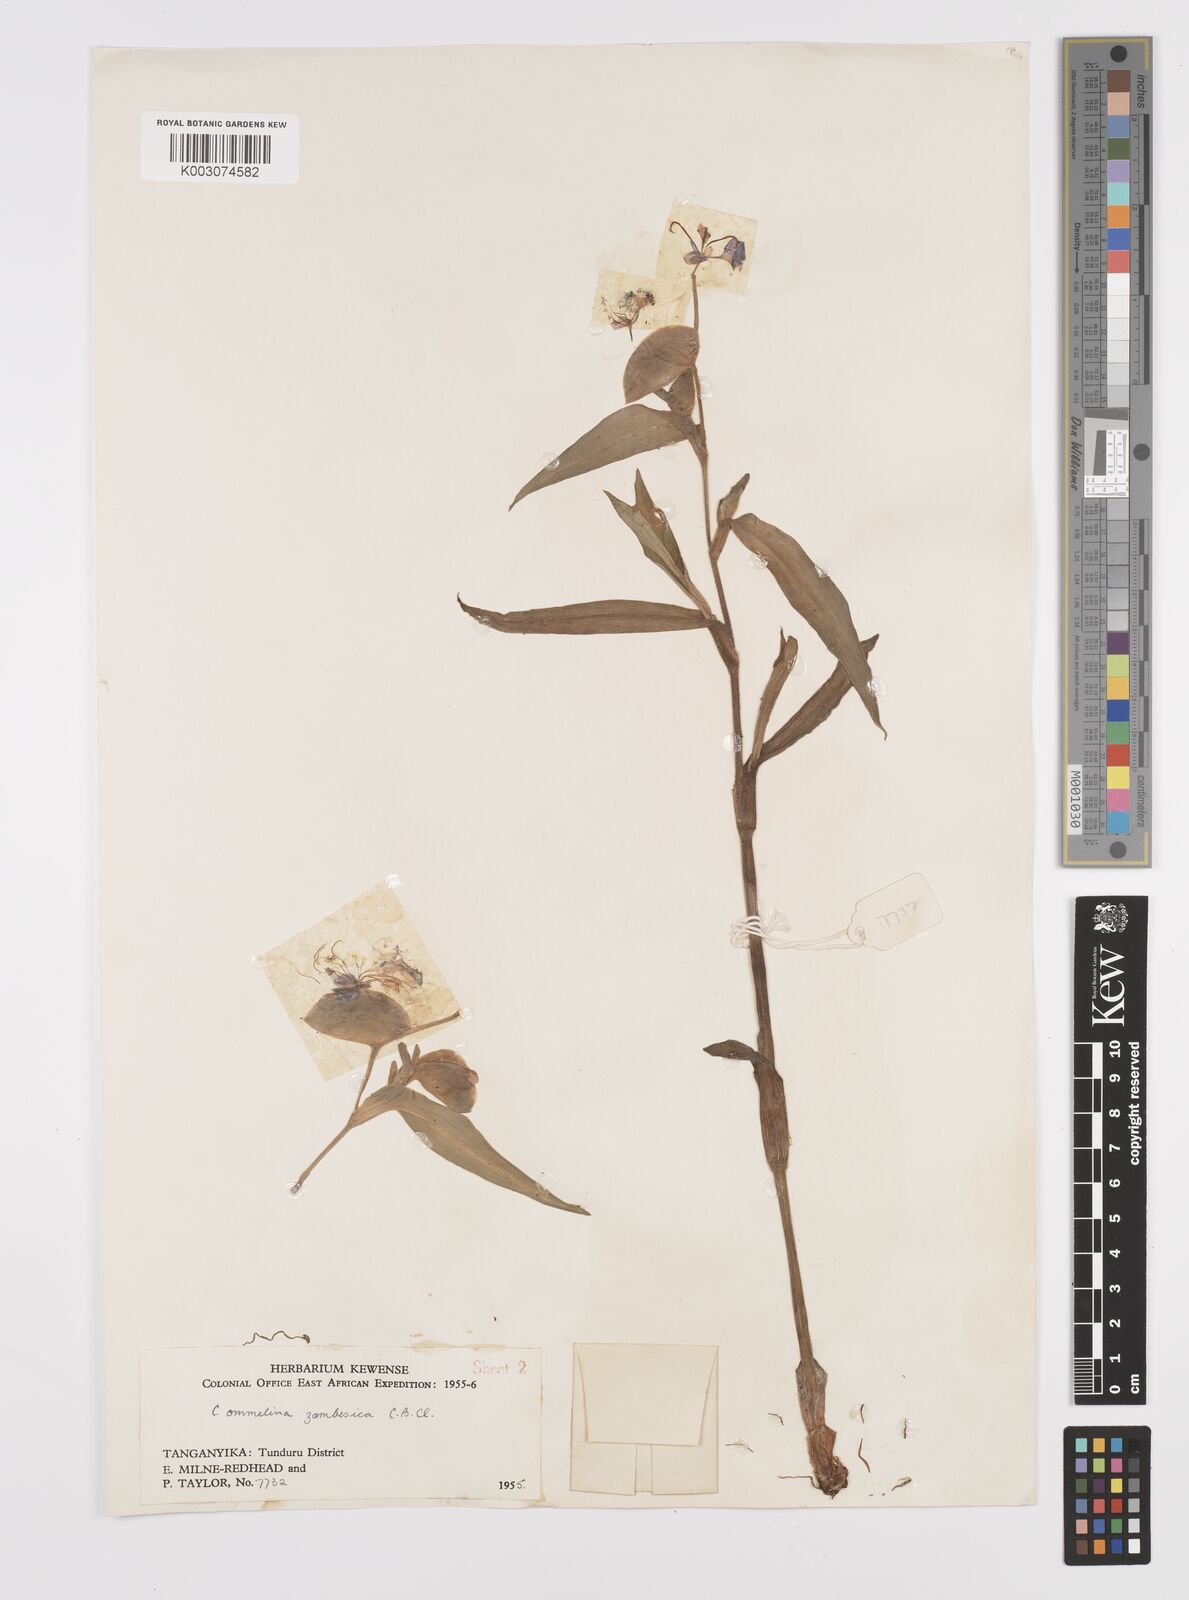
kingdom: Plantae
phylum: Tracheophyta
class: Liliopsida
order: Commelinales
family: Commelinaceae
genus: Commelina
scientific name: Commelina zambesica
